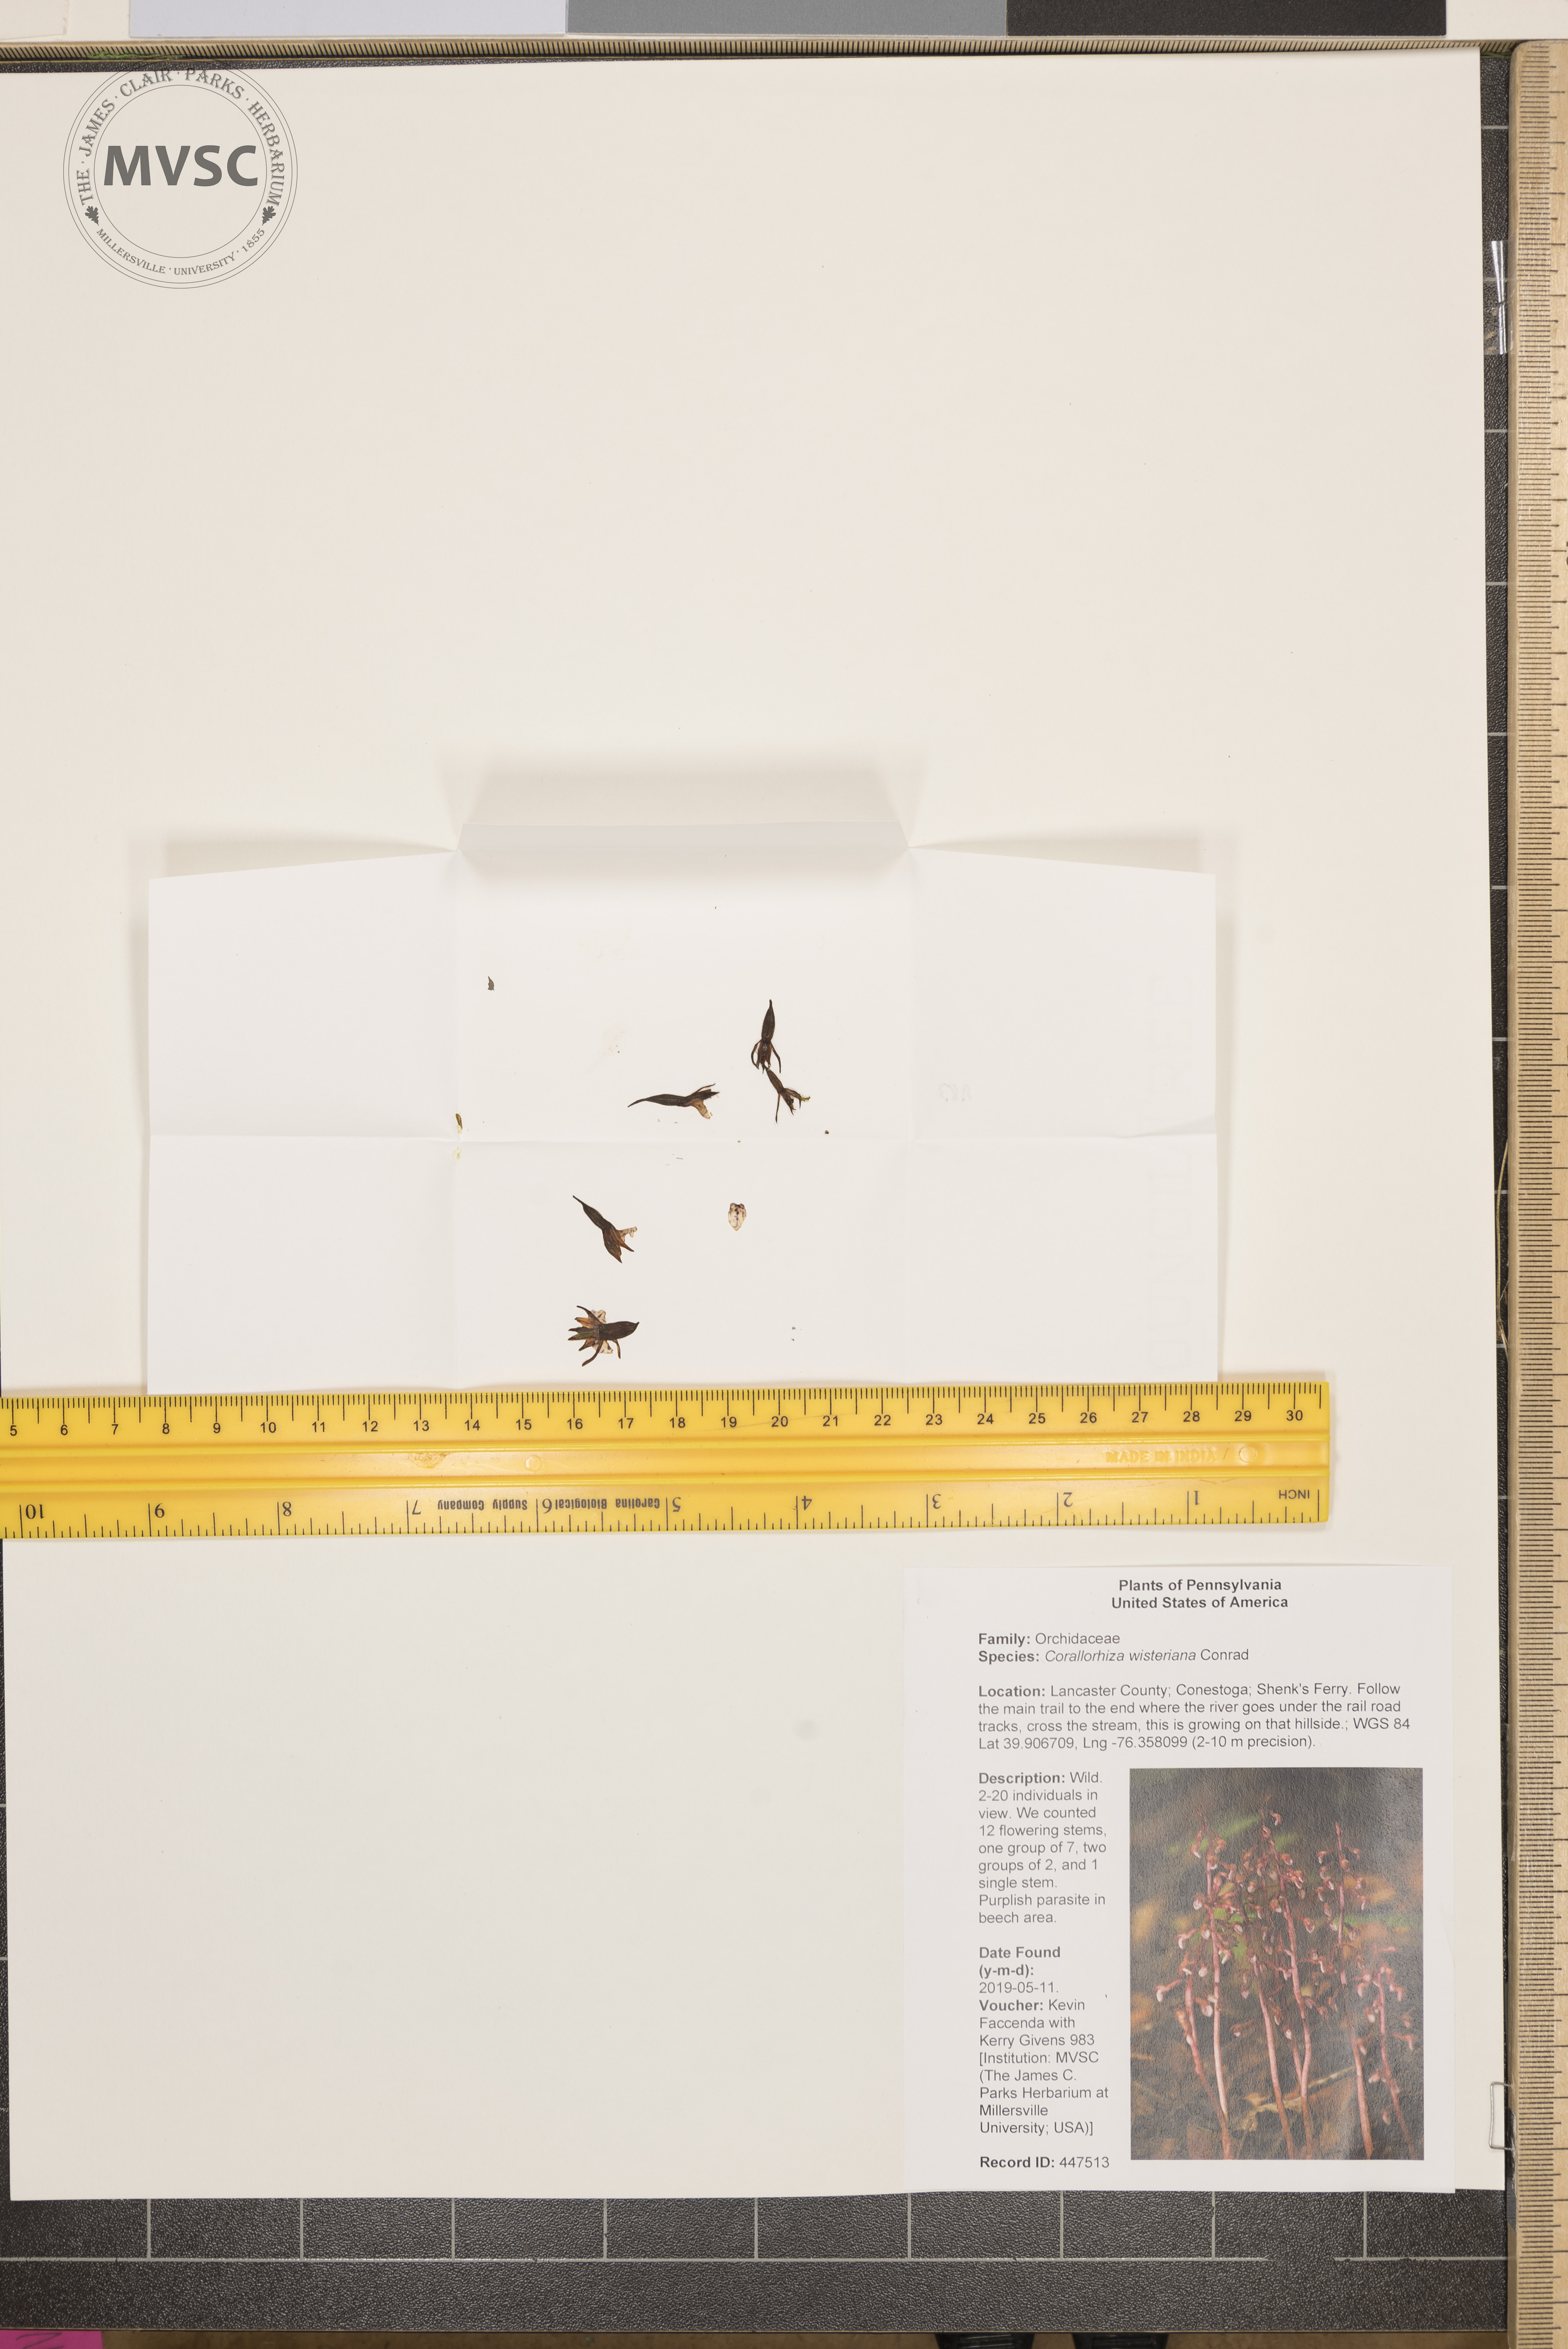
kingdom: Plantae
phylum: Tracheophyta
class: Liliopsida
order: Asparagales
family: Orchidaceae
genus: Corallorhiza
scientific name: Corallorhiza wisteriana
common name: Spring coralroot
